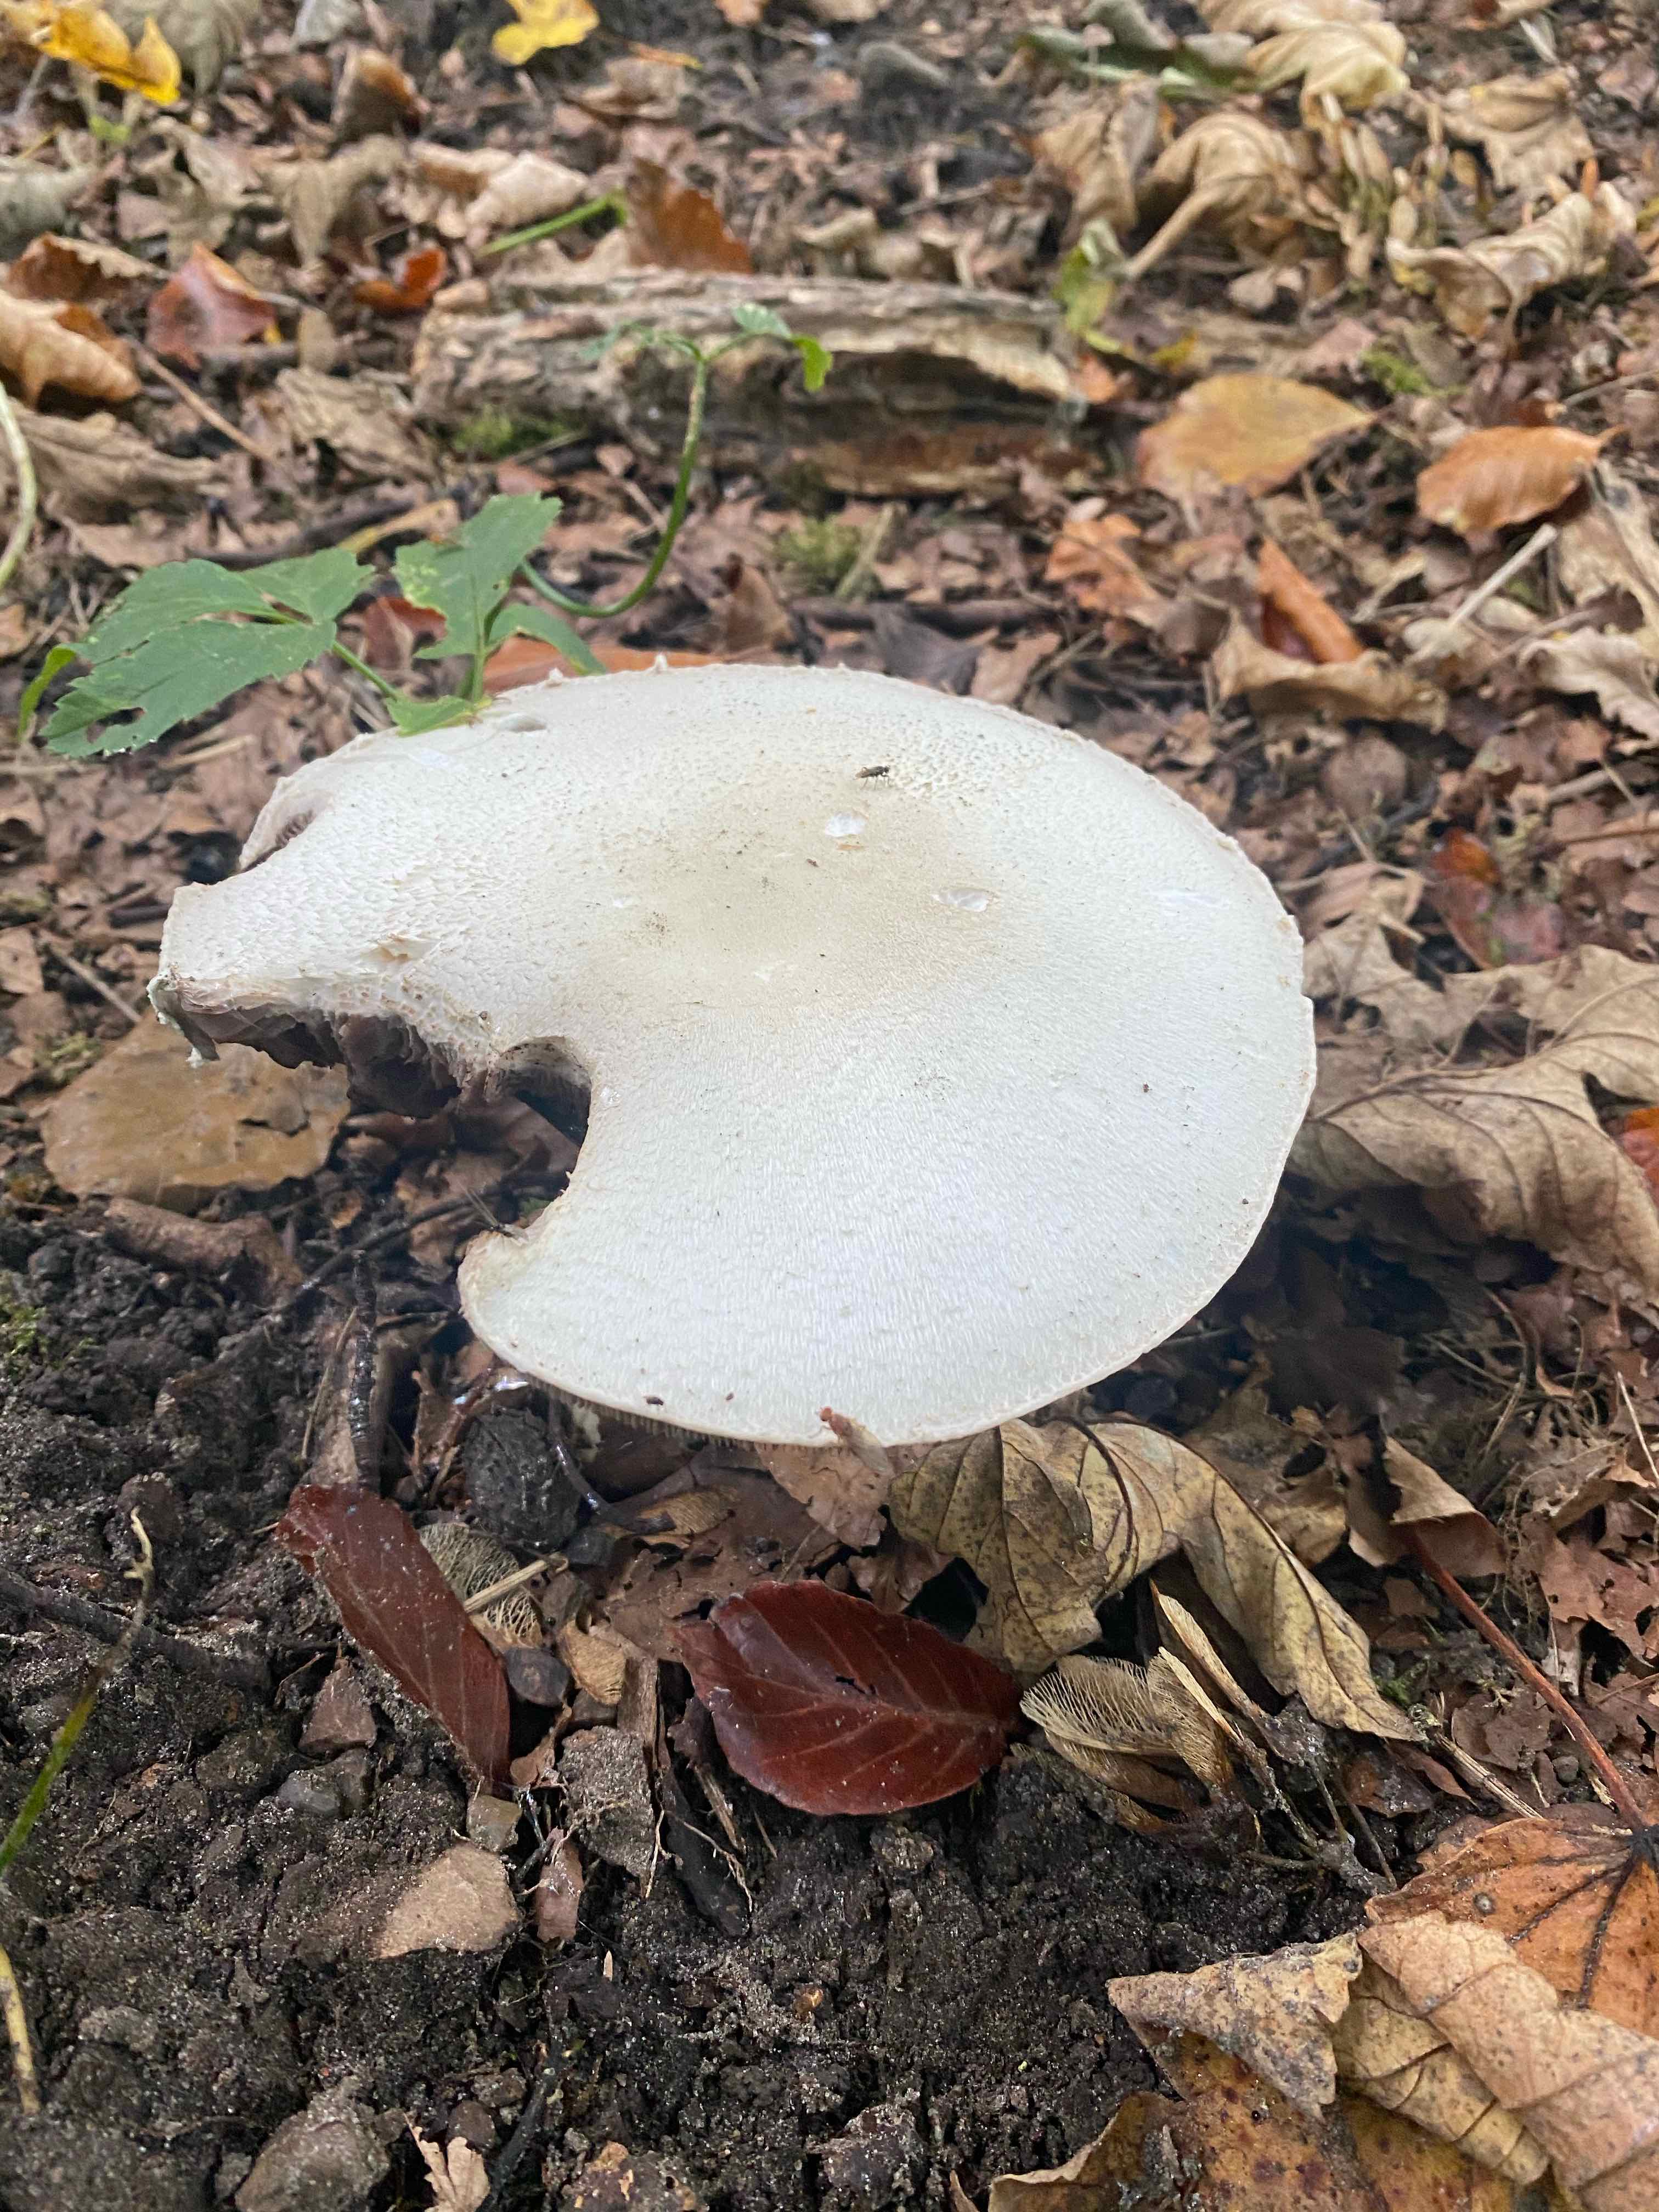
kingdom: Fungi
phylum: Basidiomycota
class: Agaricomycetes
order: Agaricales
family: Agaricaceae
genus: Agaricus
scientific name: Agaricus
